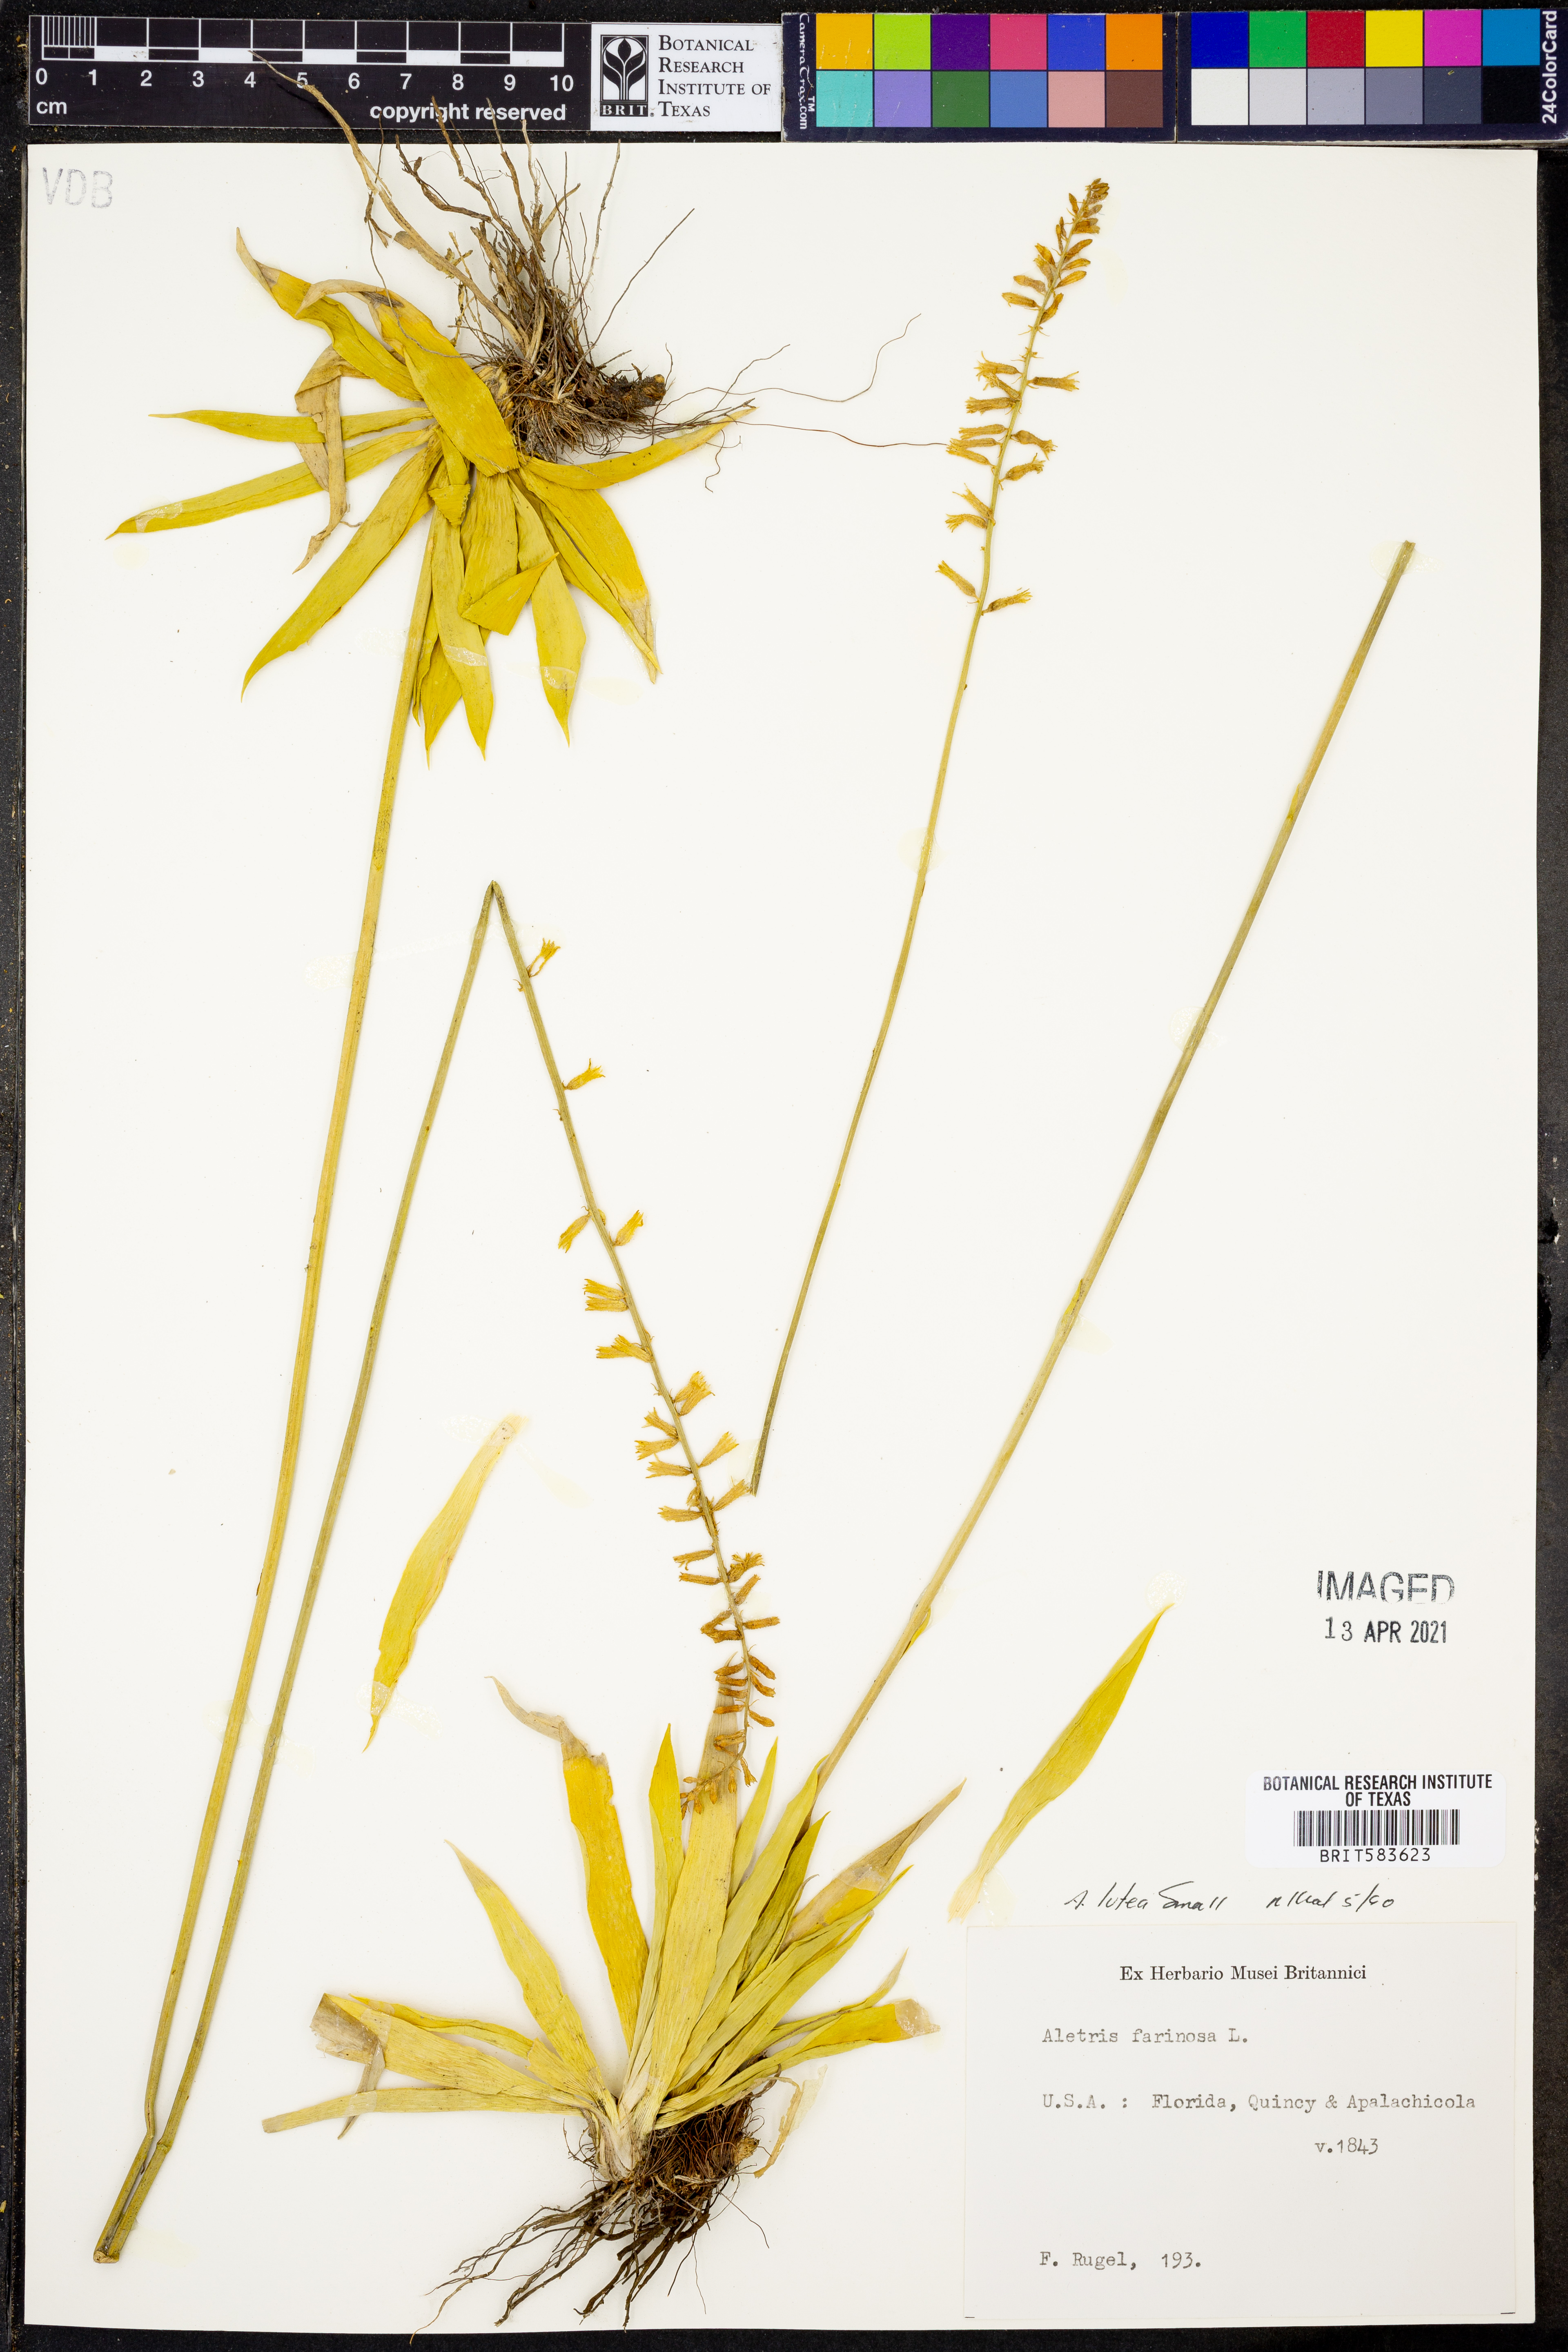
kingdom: Plantae
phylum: Tracheophyta
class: Liliopsida
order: Dioscoreales
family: Nartheciaceae
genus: Aletris
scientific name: Aletris lutea
